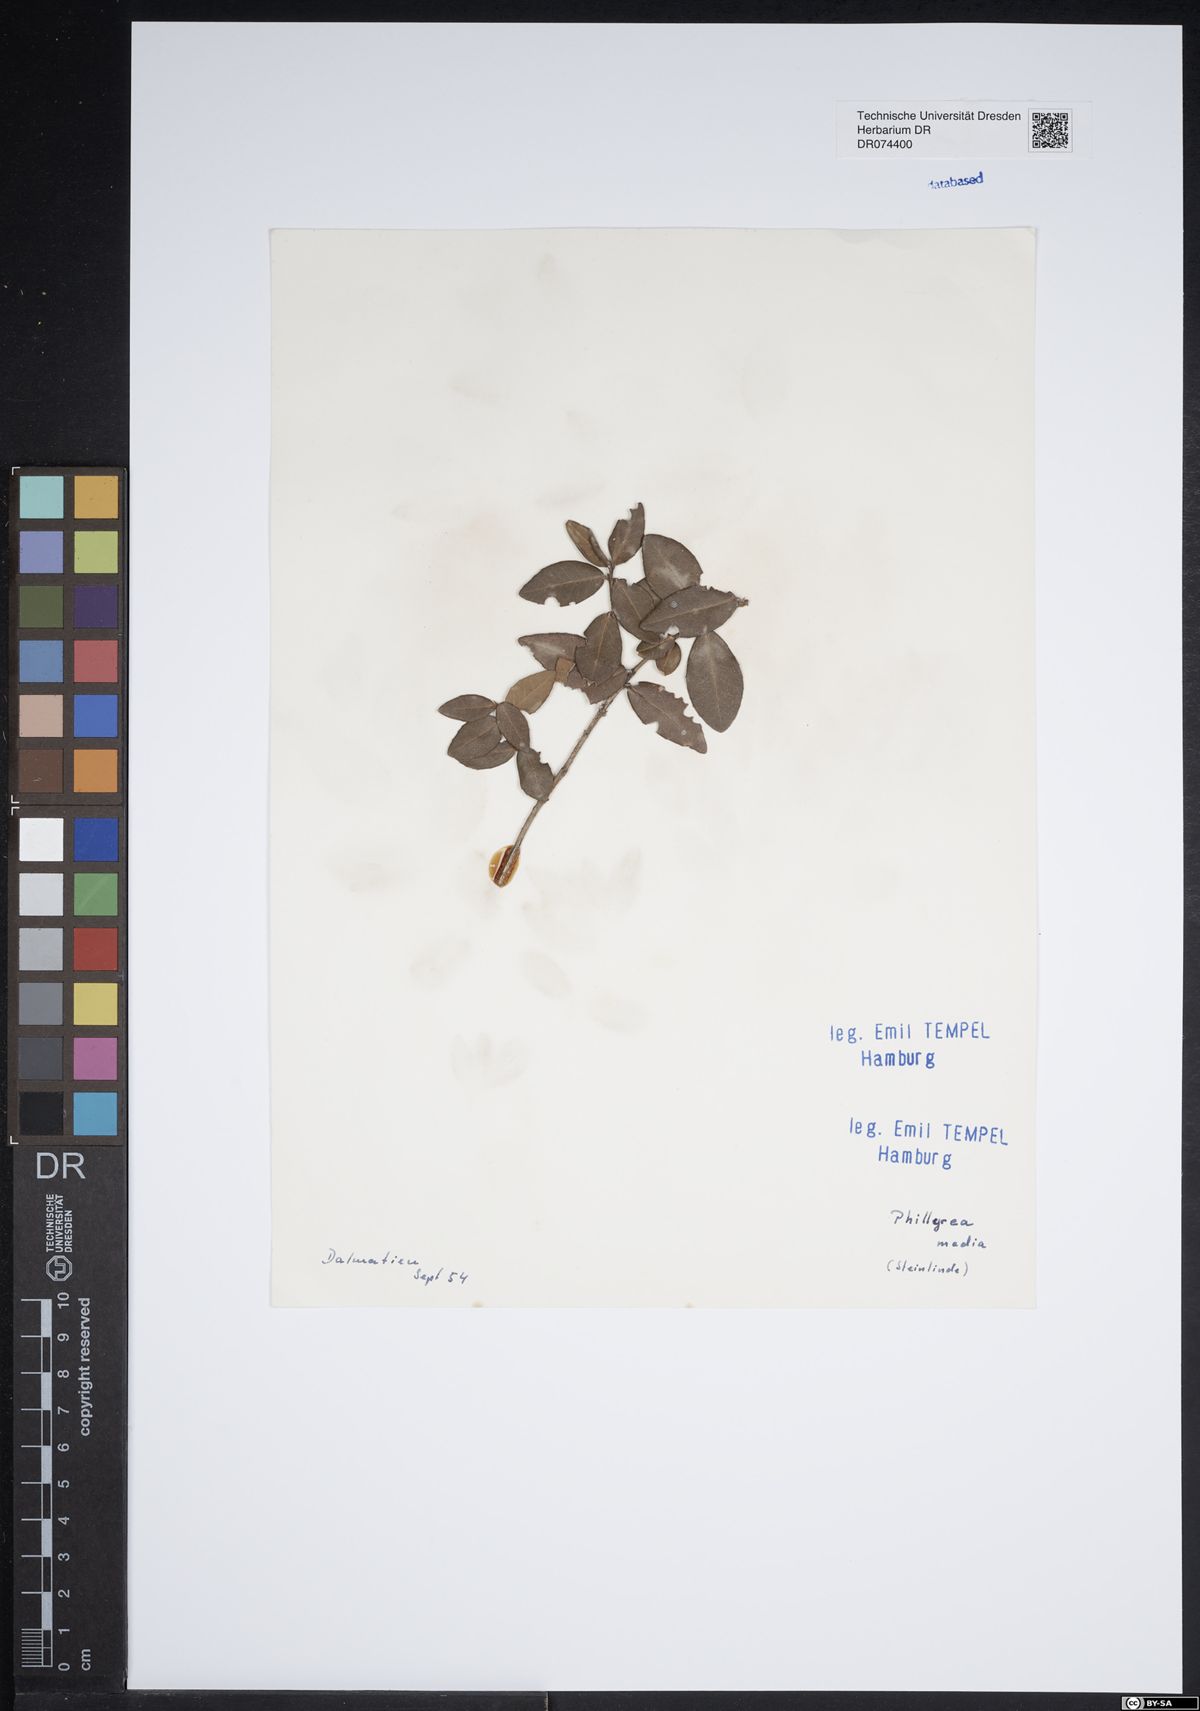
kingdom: Plantae
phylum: Tracheophyta
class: Magnoliopsida
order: Lamiales
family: Oleaceae
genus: Phillyrea
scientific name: Phillyrea latifolia
